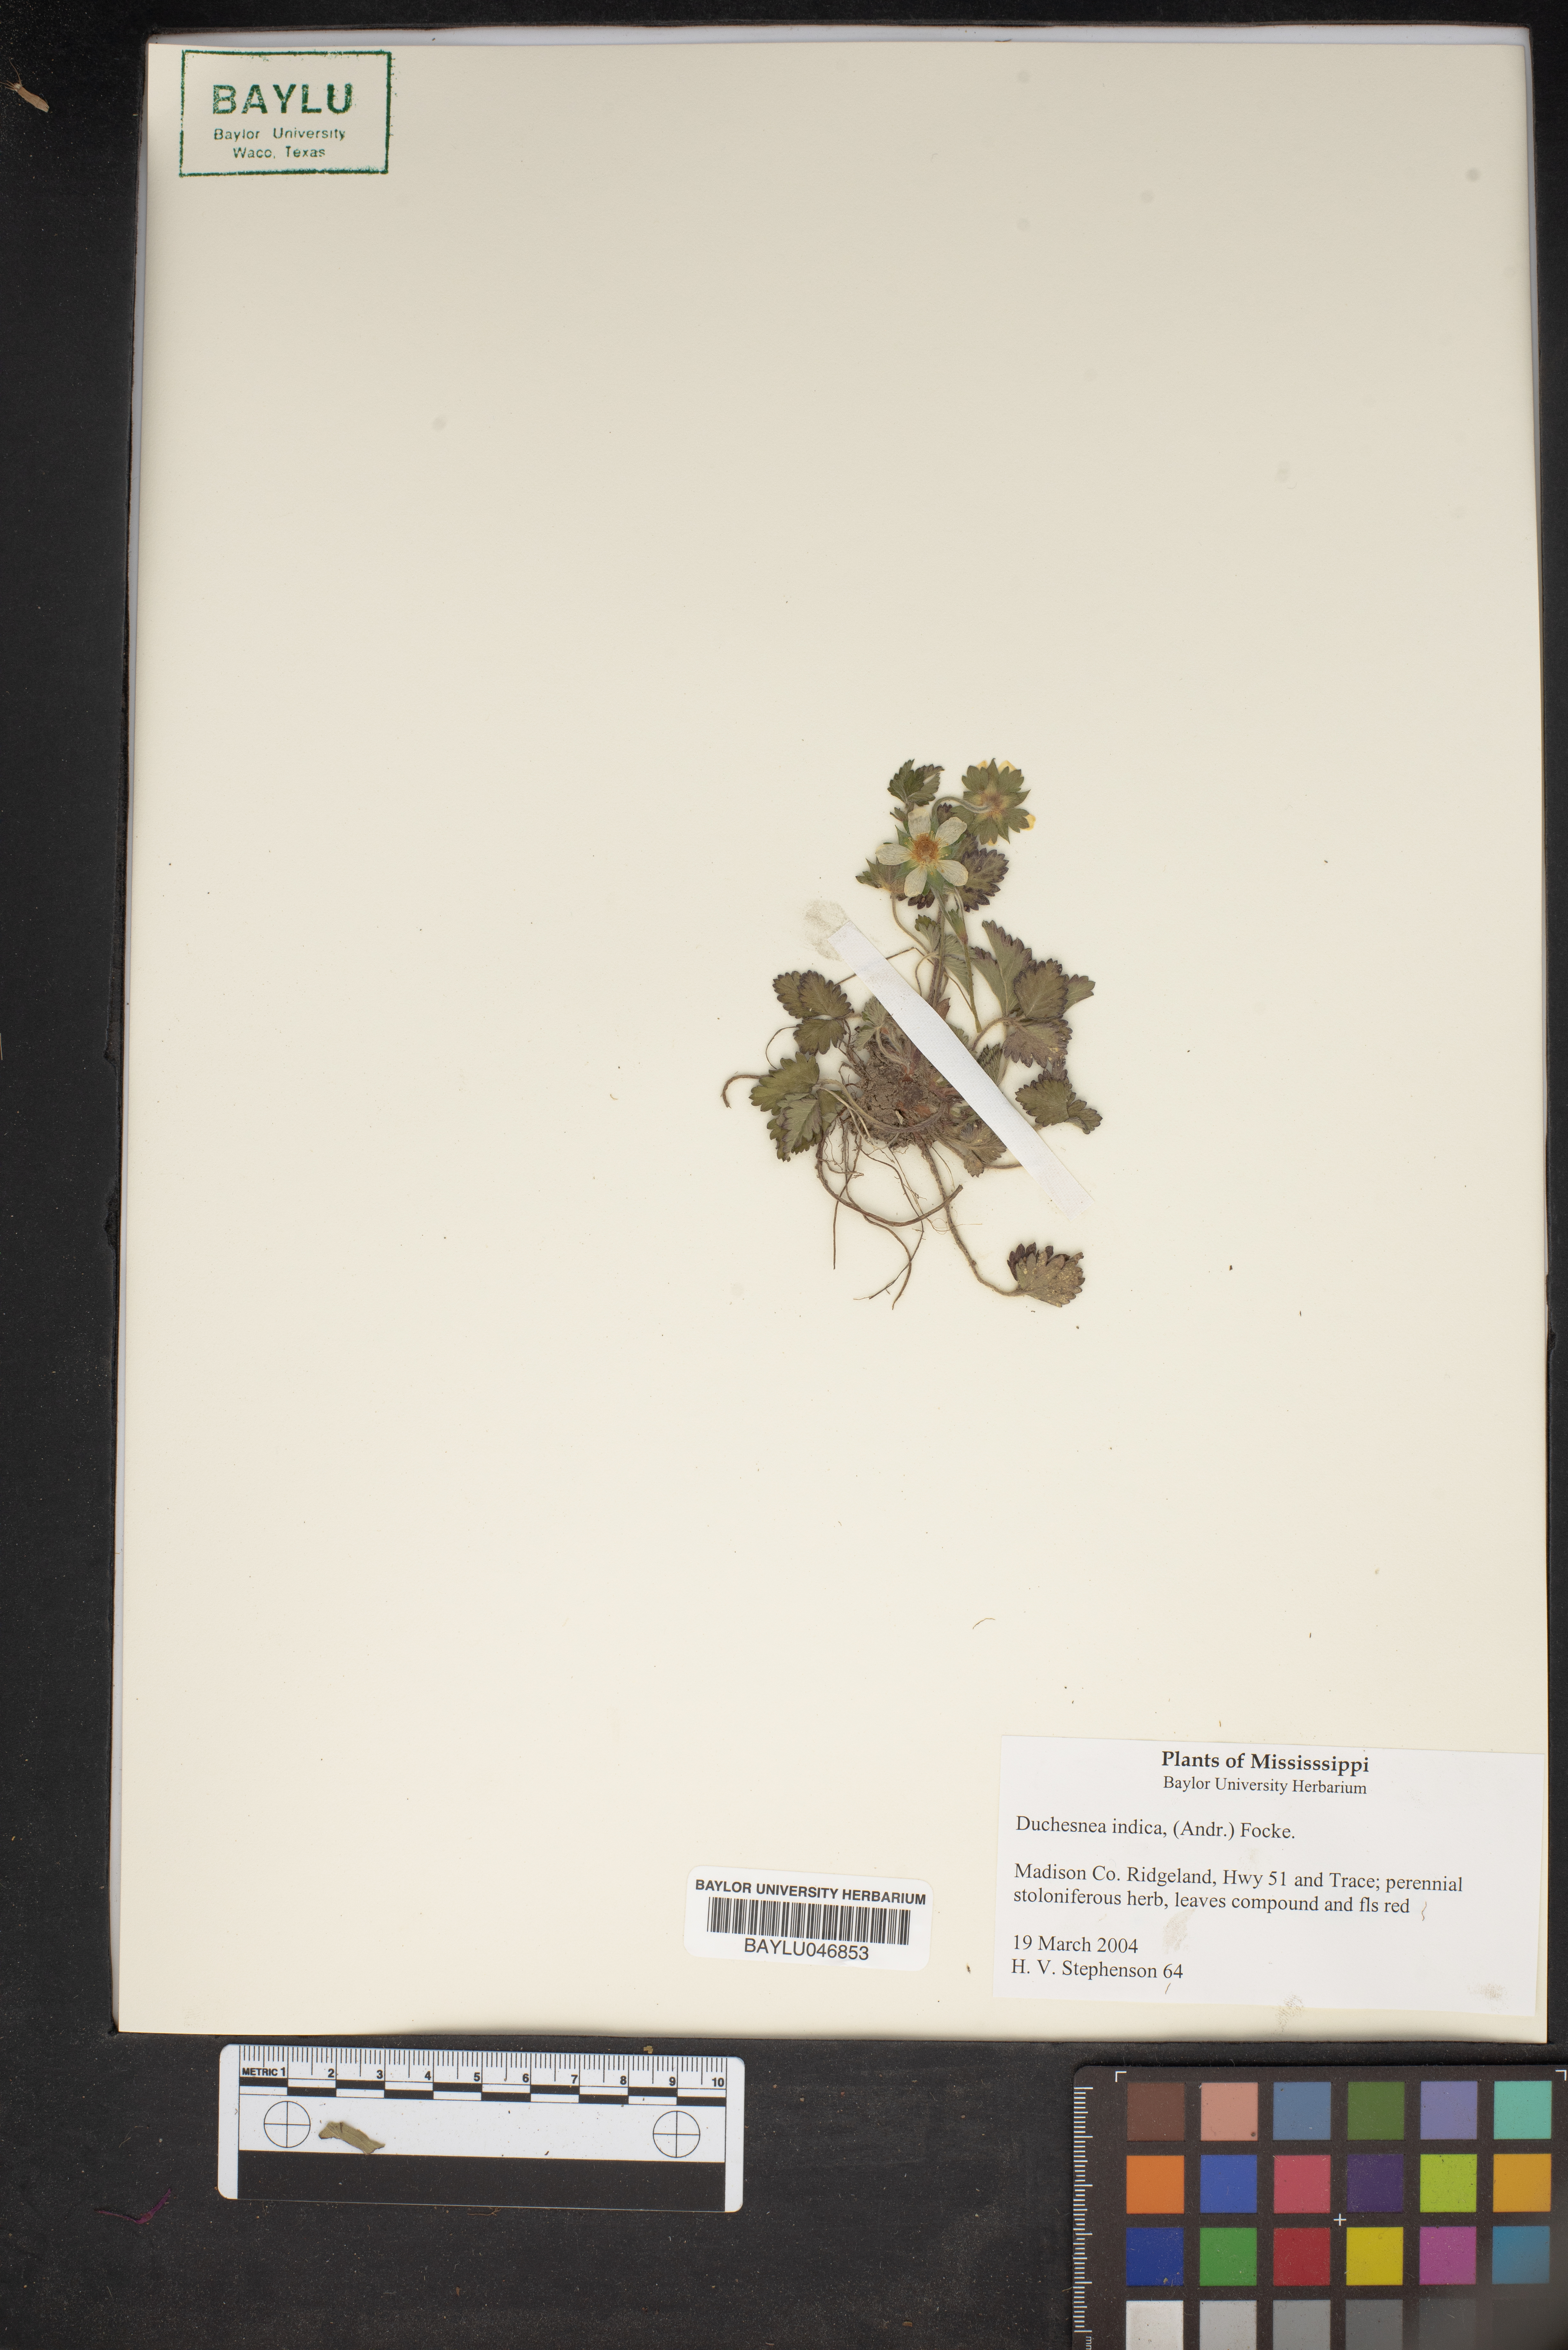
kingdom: Plantae
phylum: Tracheophyta
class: Magnoliopsida
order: Rosales
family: Rosaceae
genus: Potentilla
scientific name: Potentilla indica
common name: Yellow-flowered strawberry
